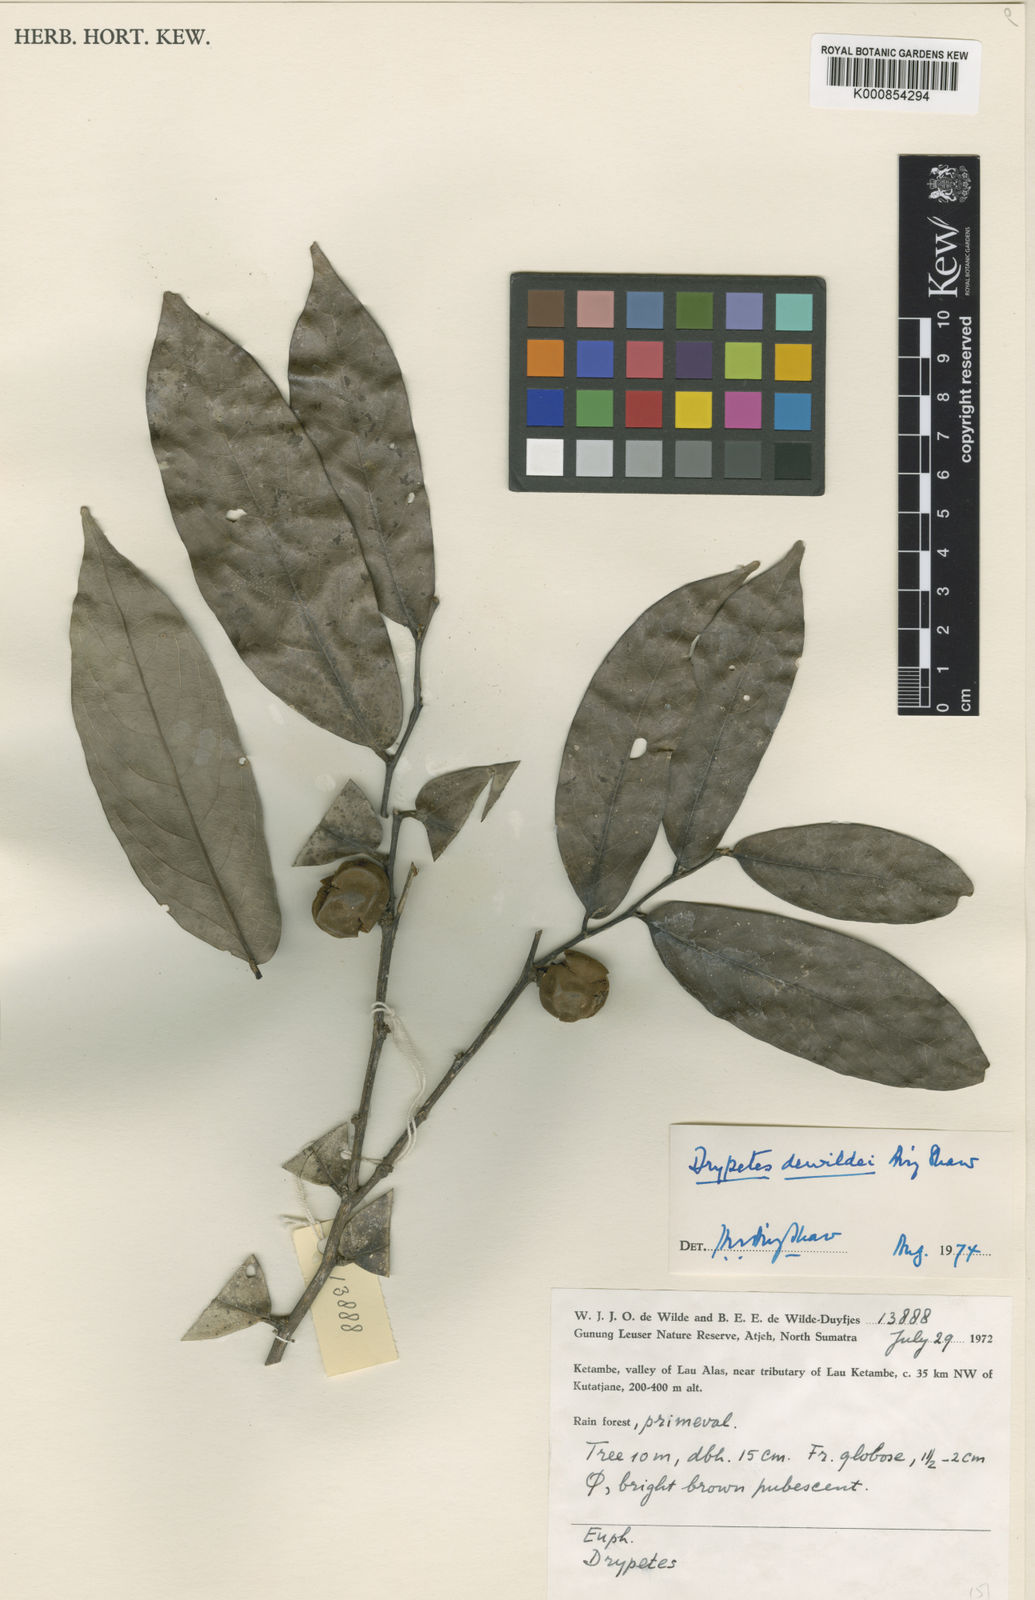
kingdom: Plantae
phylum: Tracheophyta
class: Magnoliopsida
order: Malpighiales
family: Putranjivaceae
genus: Drypetes
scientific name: Drypetes dewildei
